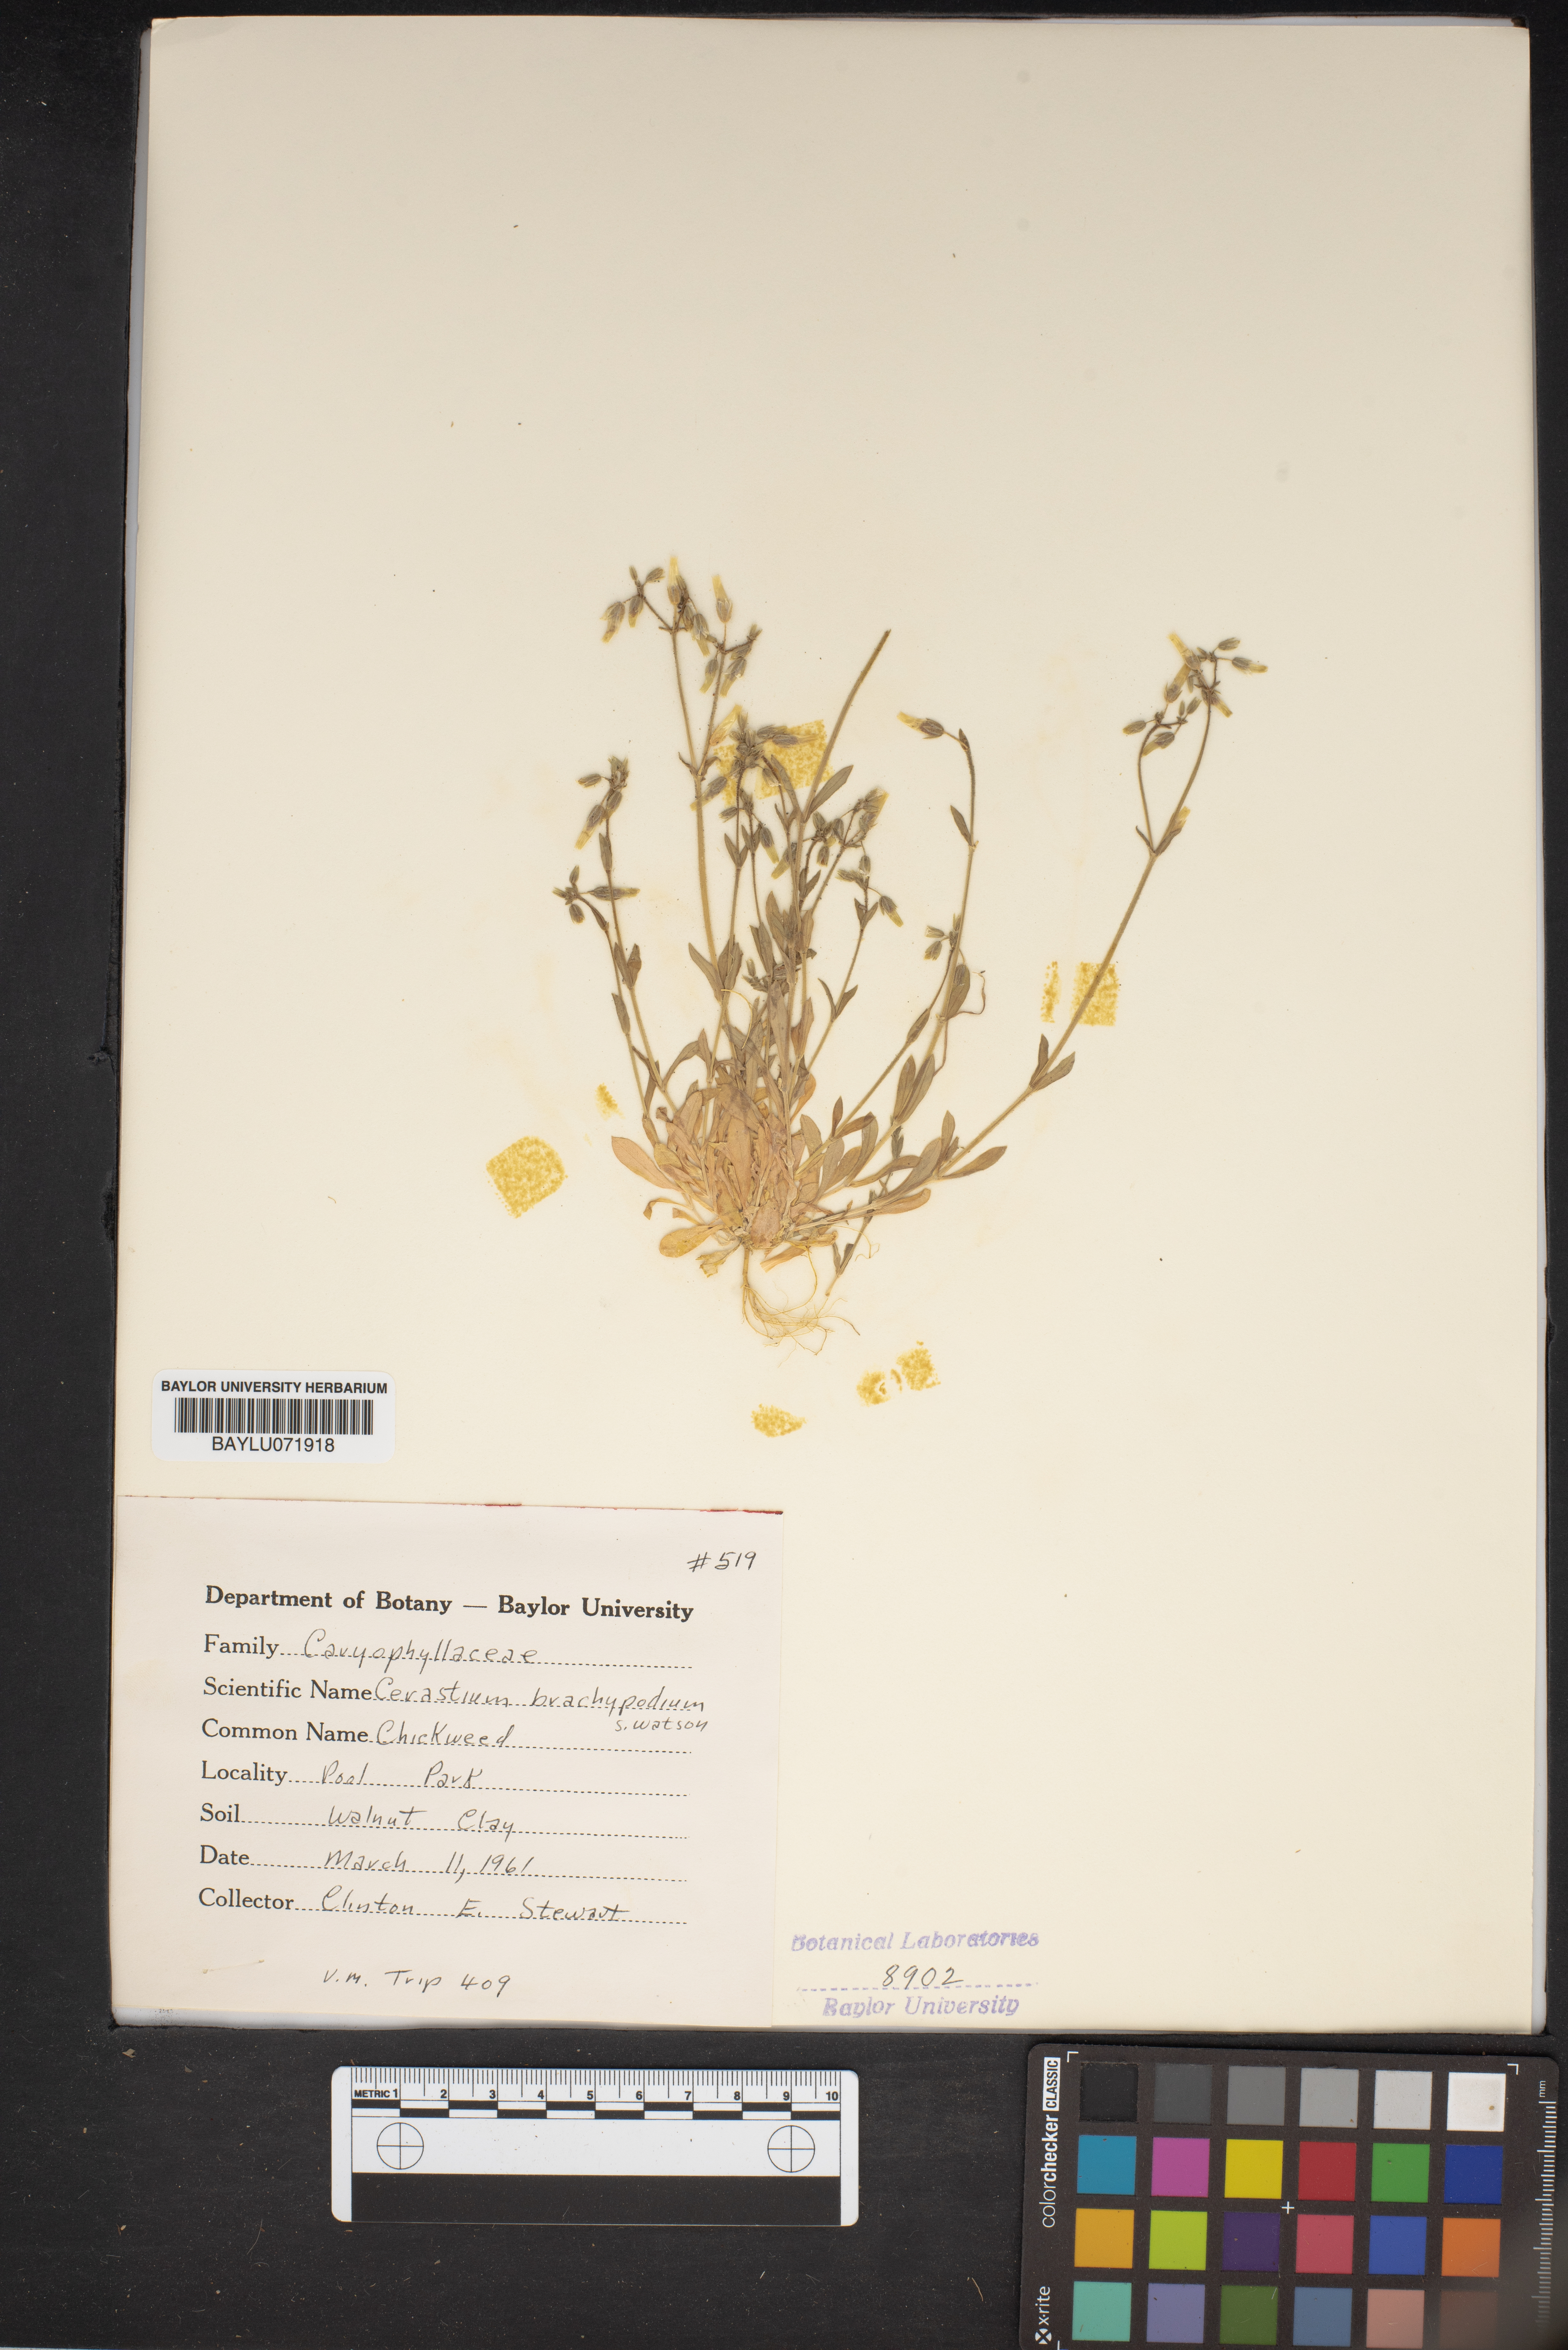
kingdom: Plantae
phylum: Tracheophyta
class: Magnoliopsida
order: Caryophyllales
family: Caryophyllaceae
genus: Cerastium
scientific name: Cerastium brachypodum
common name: Short-pedicelled nodding chickweed
